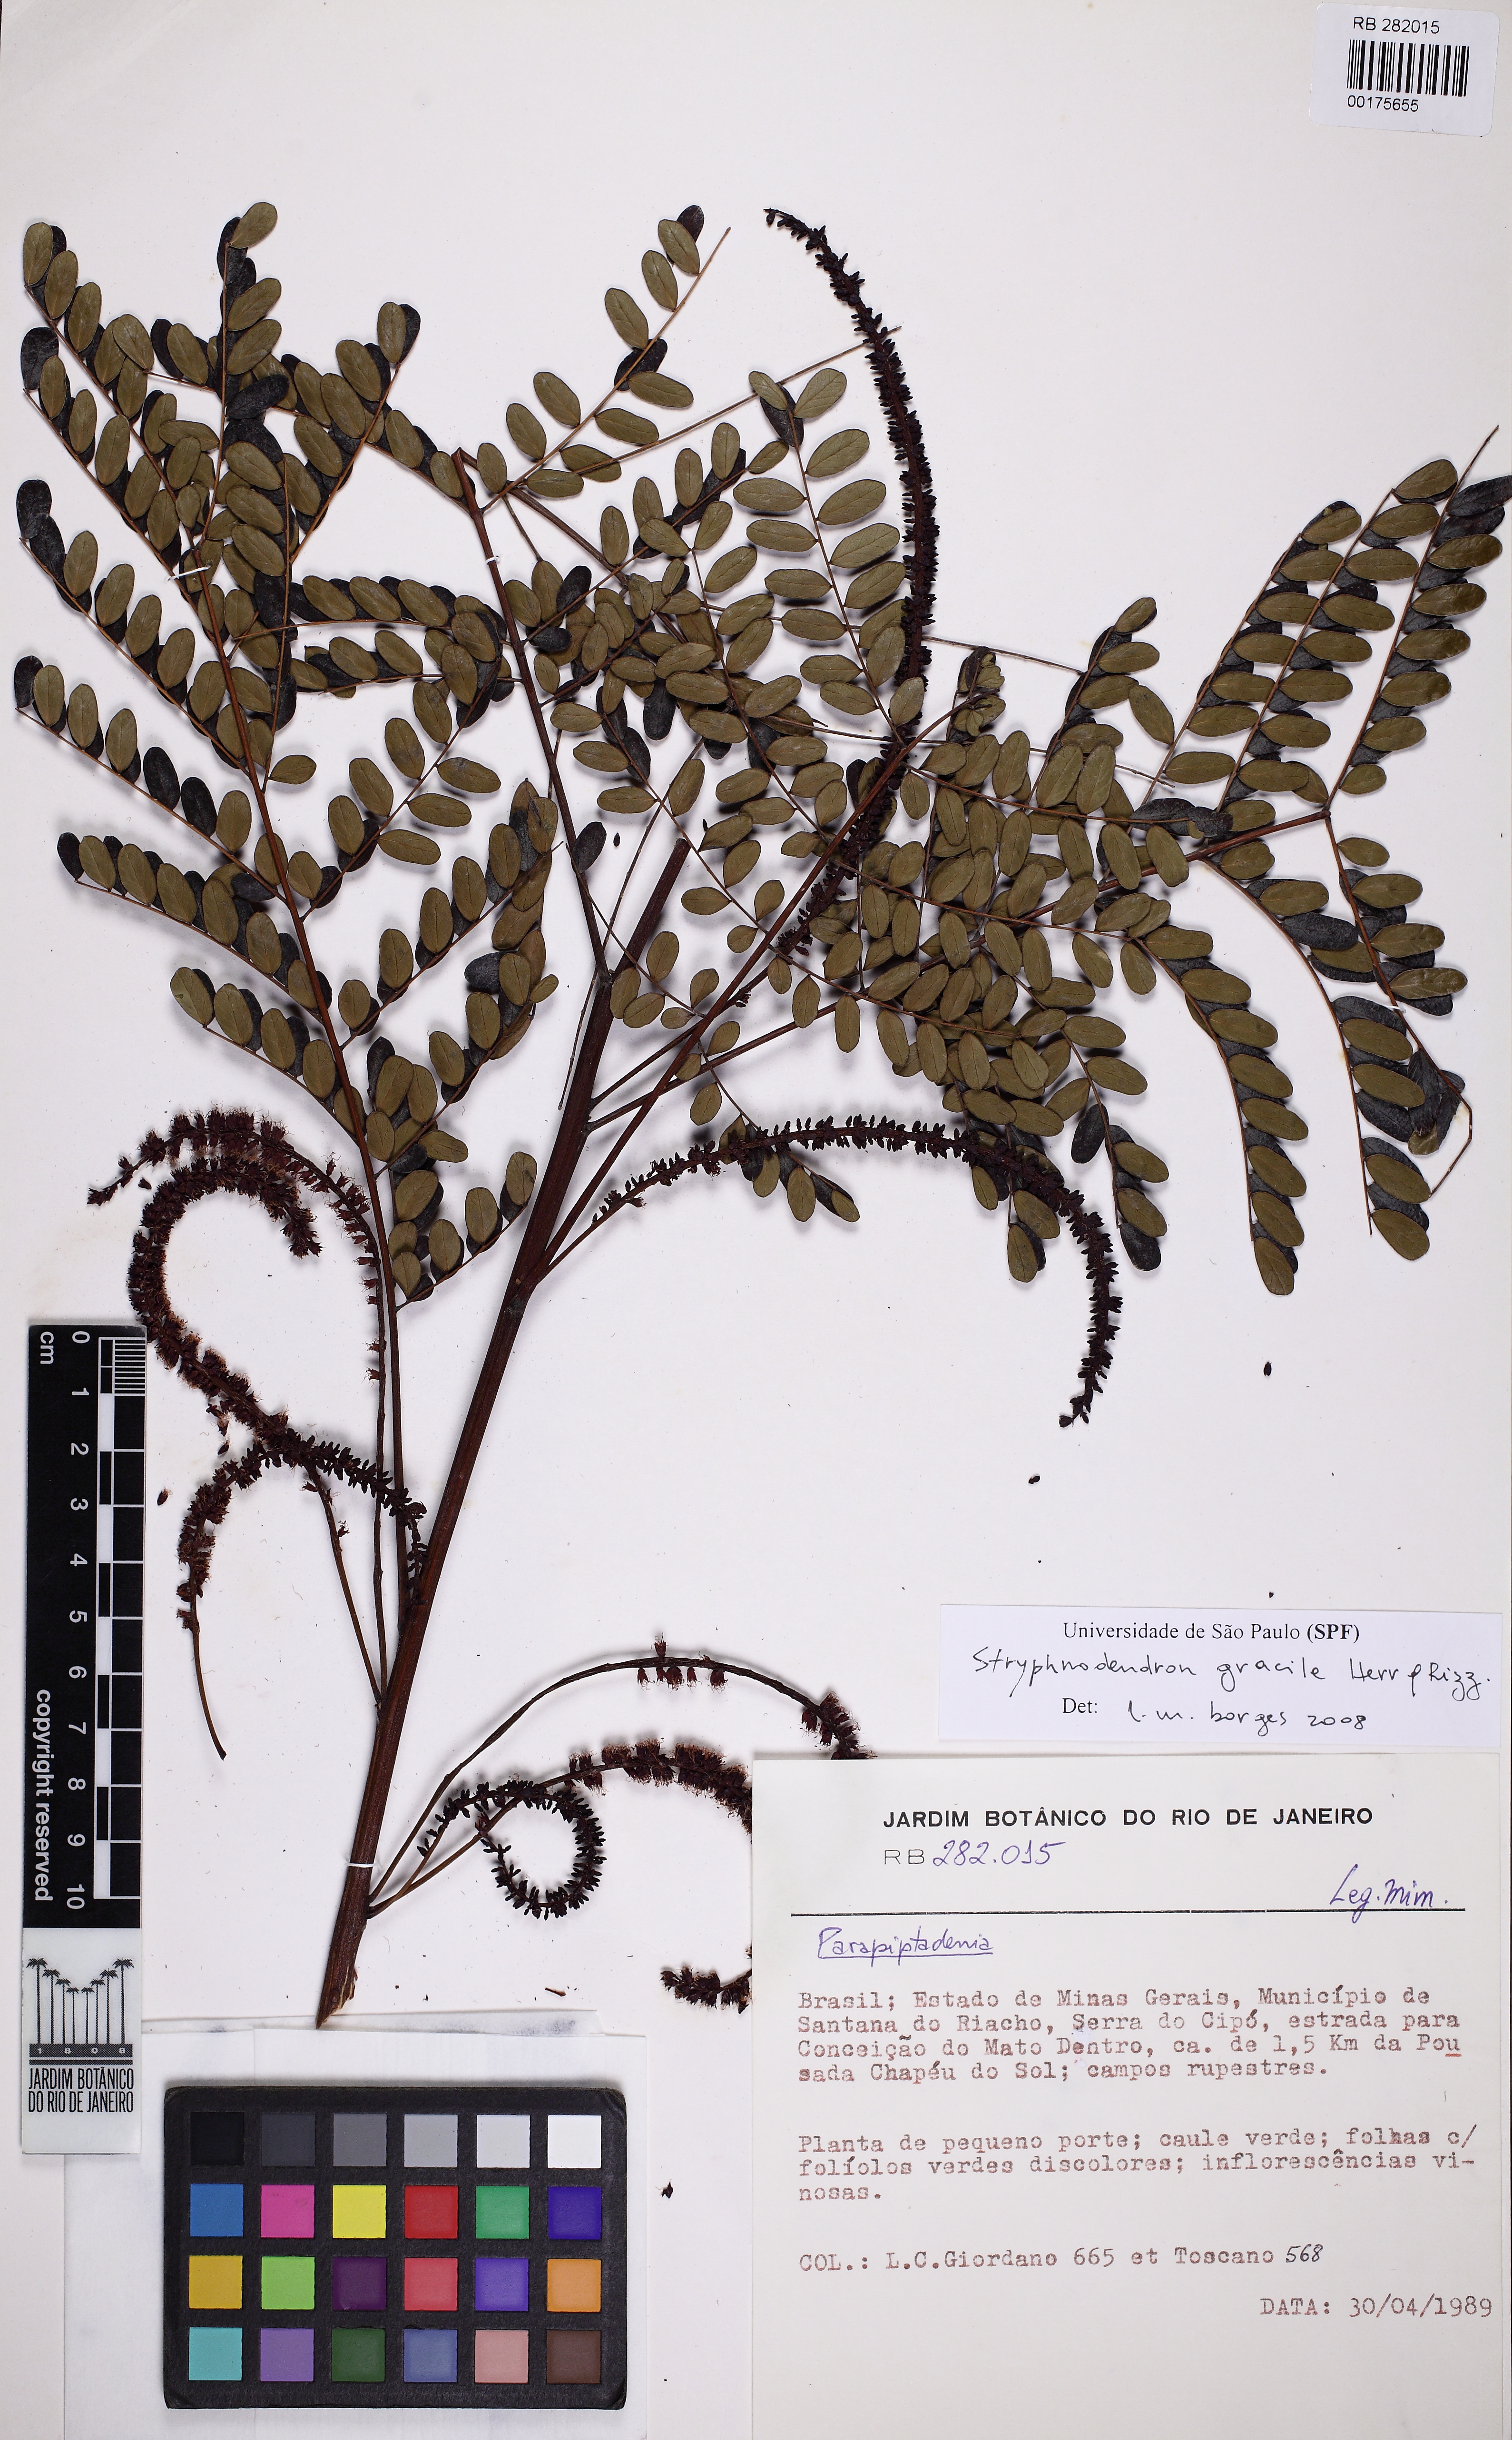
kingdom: Plantae
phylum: Tracheophyta
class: Magnoliopsida
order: Fabales
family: Fabaceae
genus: Stryphnodendron
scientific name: Stryphnodendron gracile
